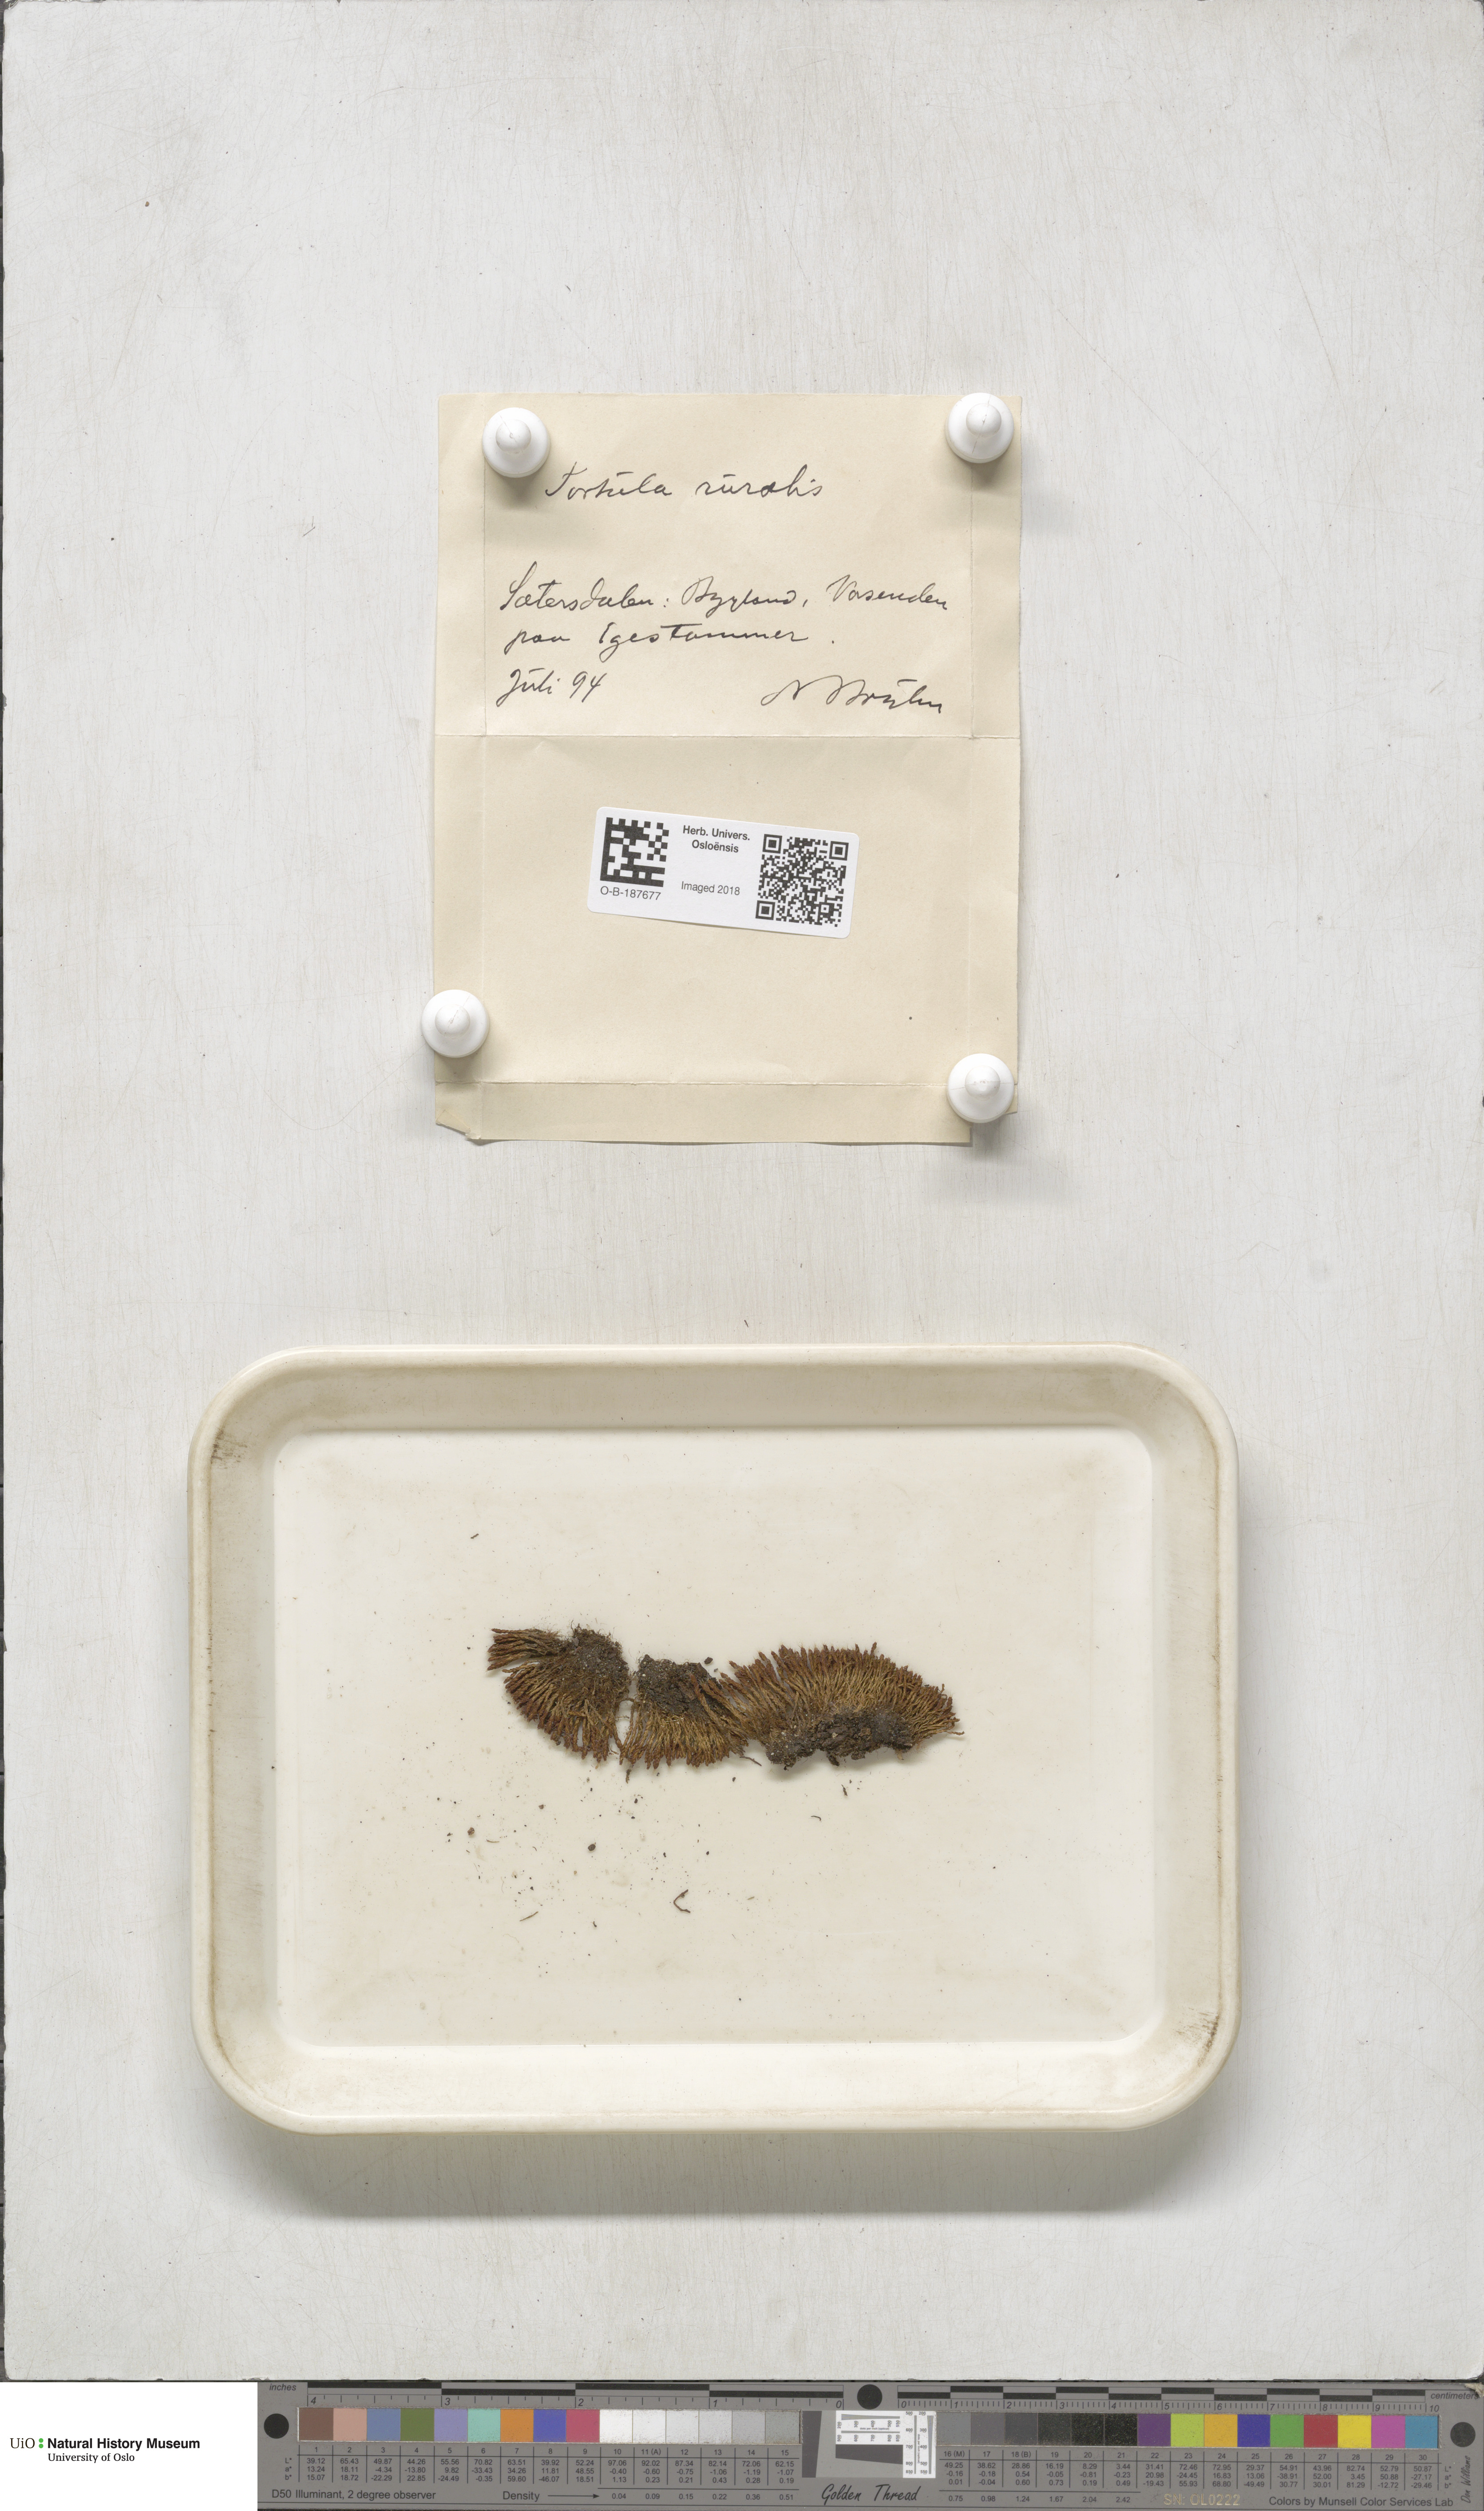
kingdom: Plantae
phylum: Bryophyta
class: Bryopsida
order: Pottiales
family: Pottiaceae
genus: Syntrichia
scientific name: Syntrichia ruralis
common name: Sidewalk screw moss
